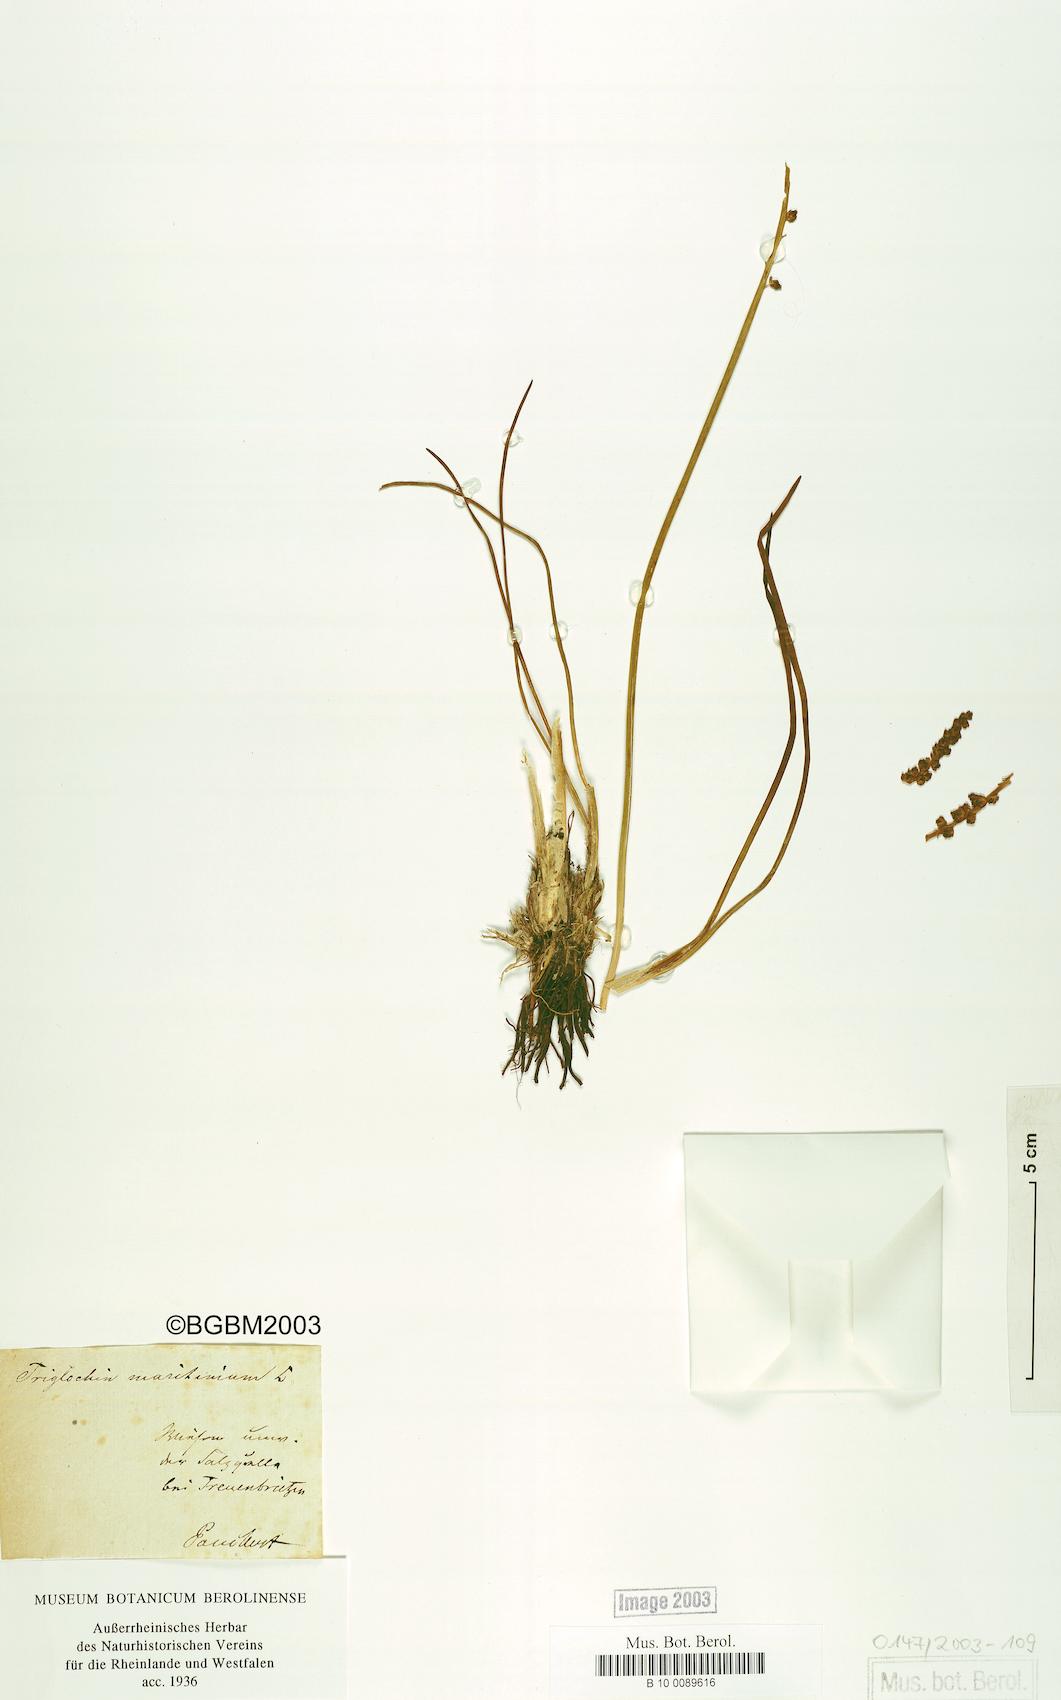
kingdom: Plantae
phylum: Tracheophyta
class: Liliopsida
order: Alismatales
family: Juncaginaceae
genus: Triglochin
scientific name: Triglochin maritima
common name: Sea arrowgrass
